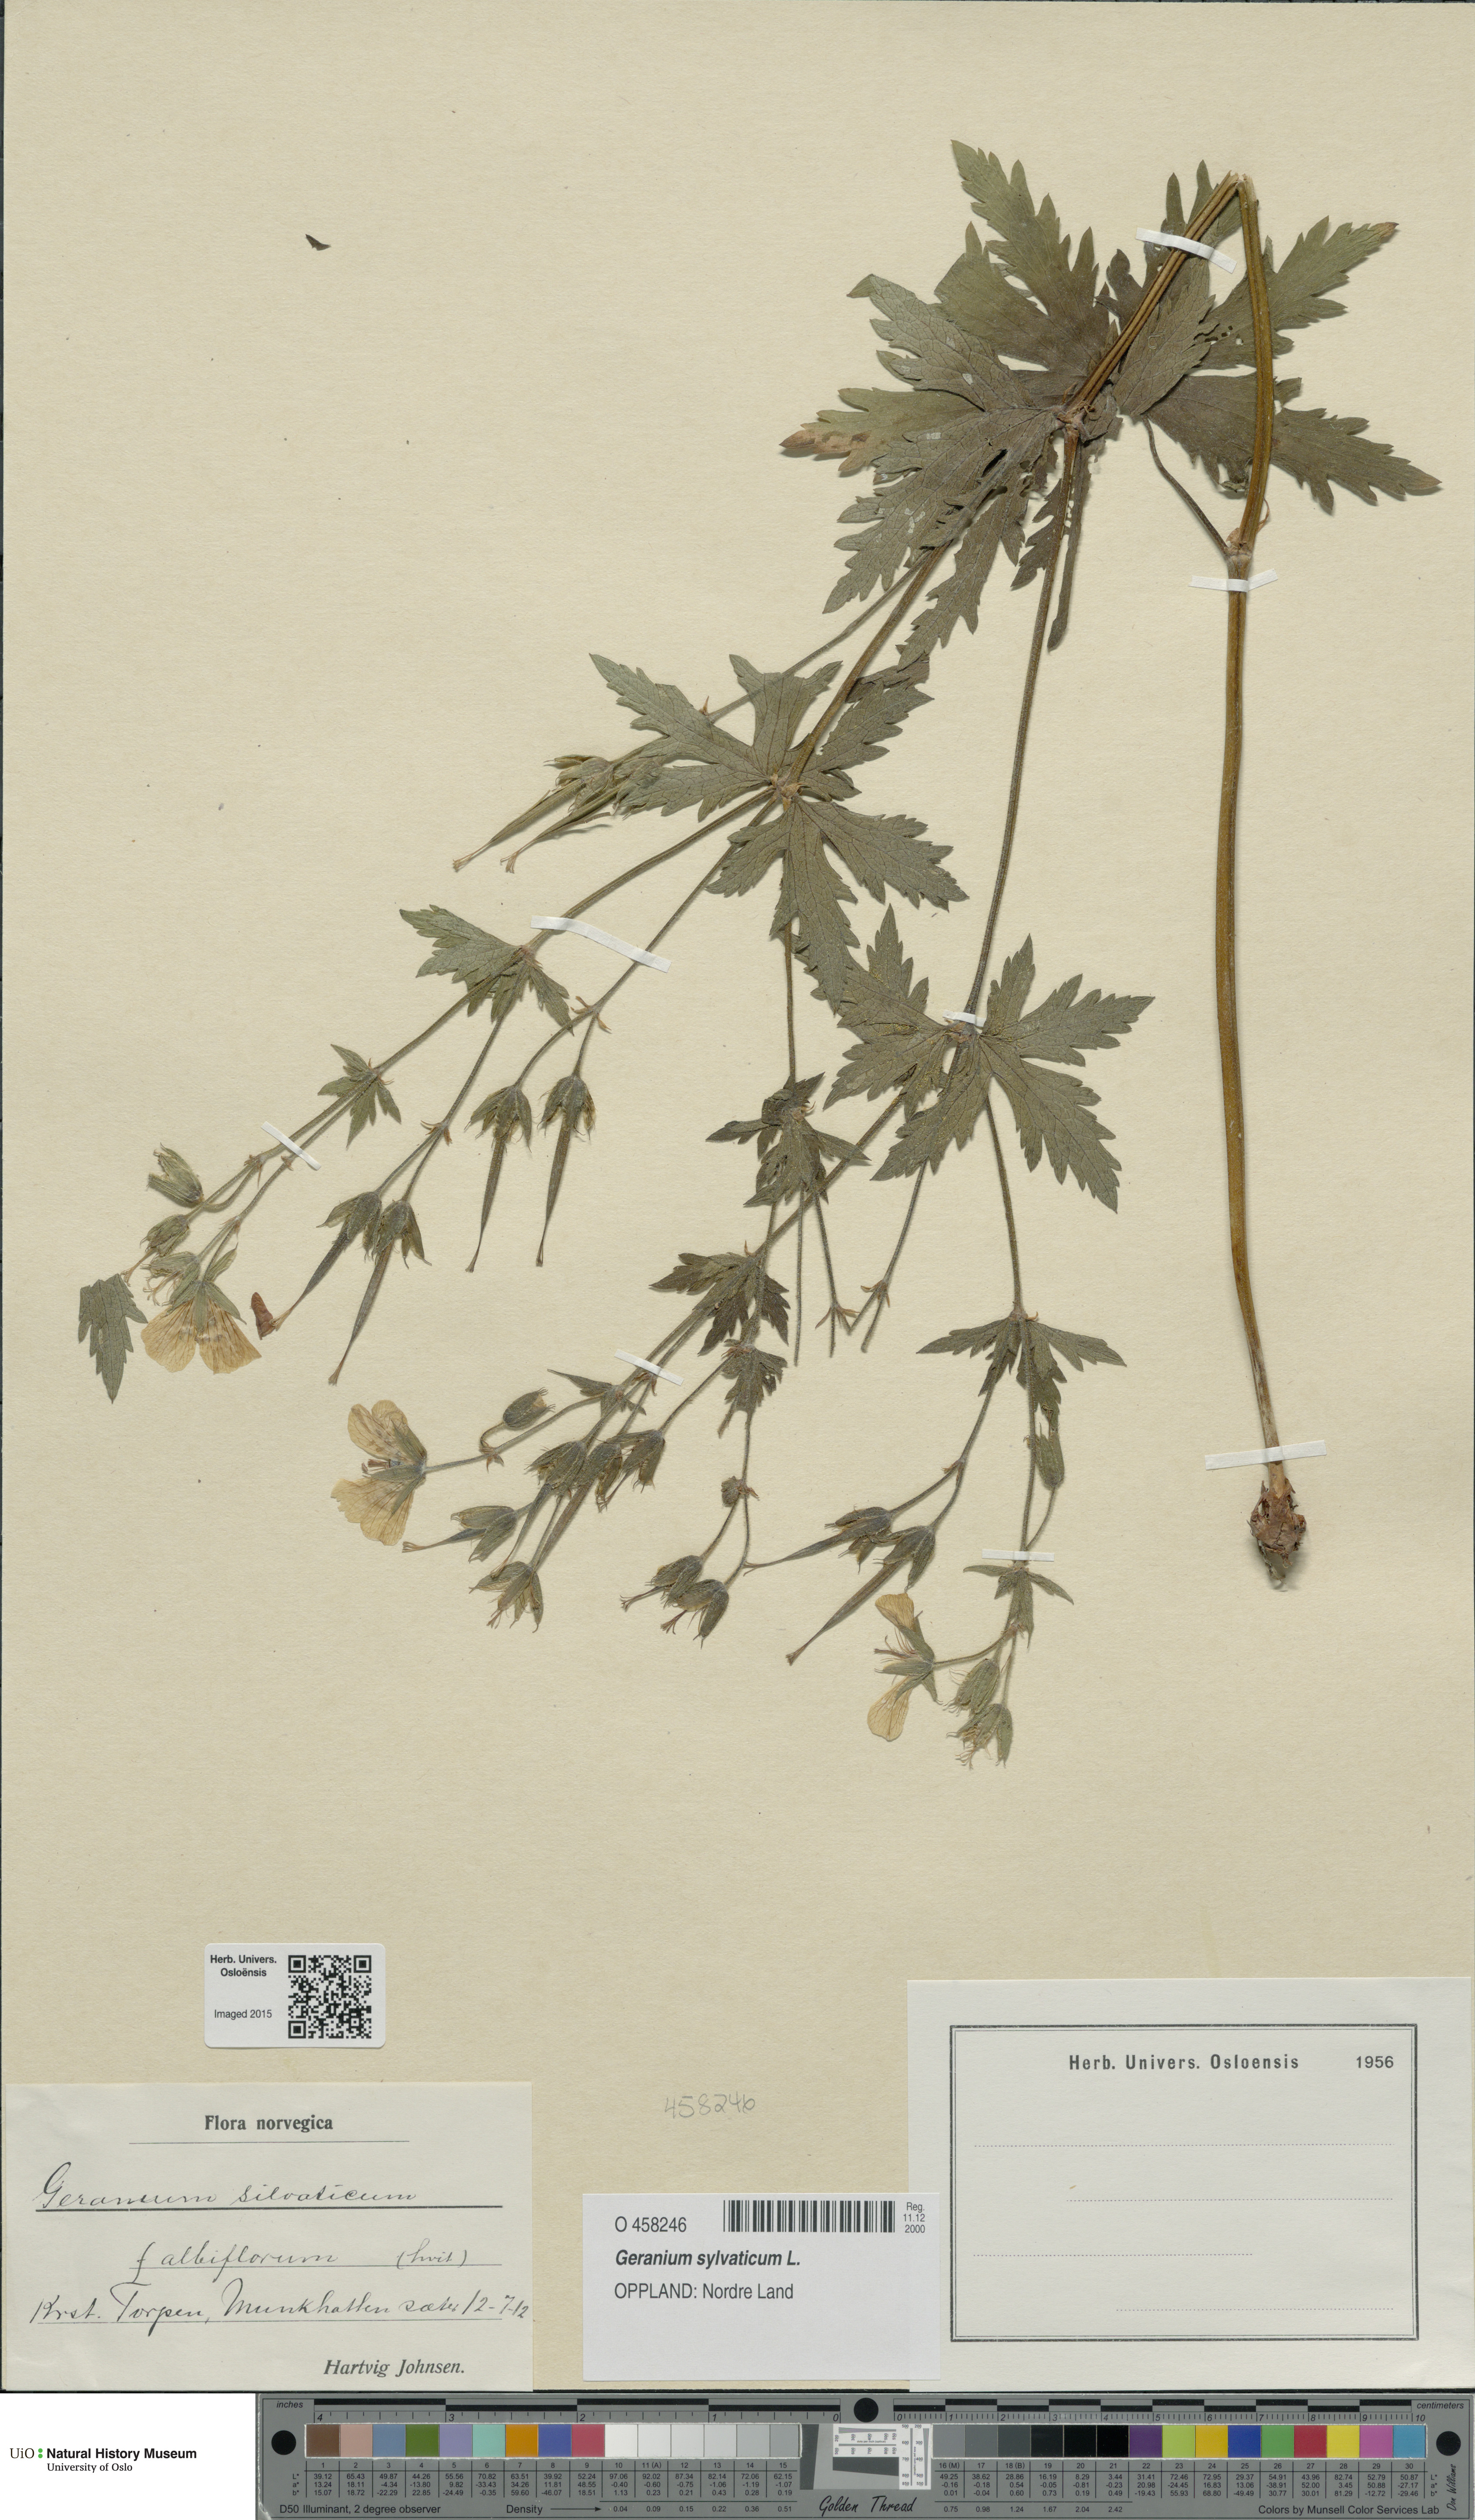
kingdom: Plantae
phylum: Tracheophyta
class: Magnoliopsida
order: Geraniales
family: Geraniaceae
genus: Geranium
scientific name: Geranium sylvaticum
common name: Wood crane's-bill
